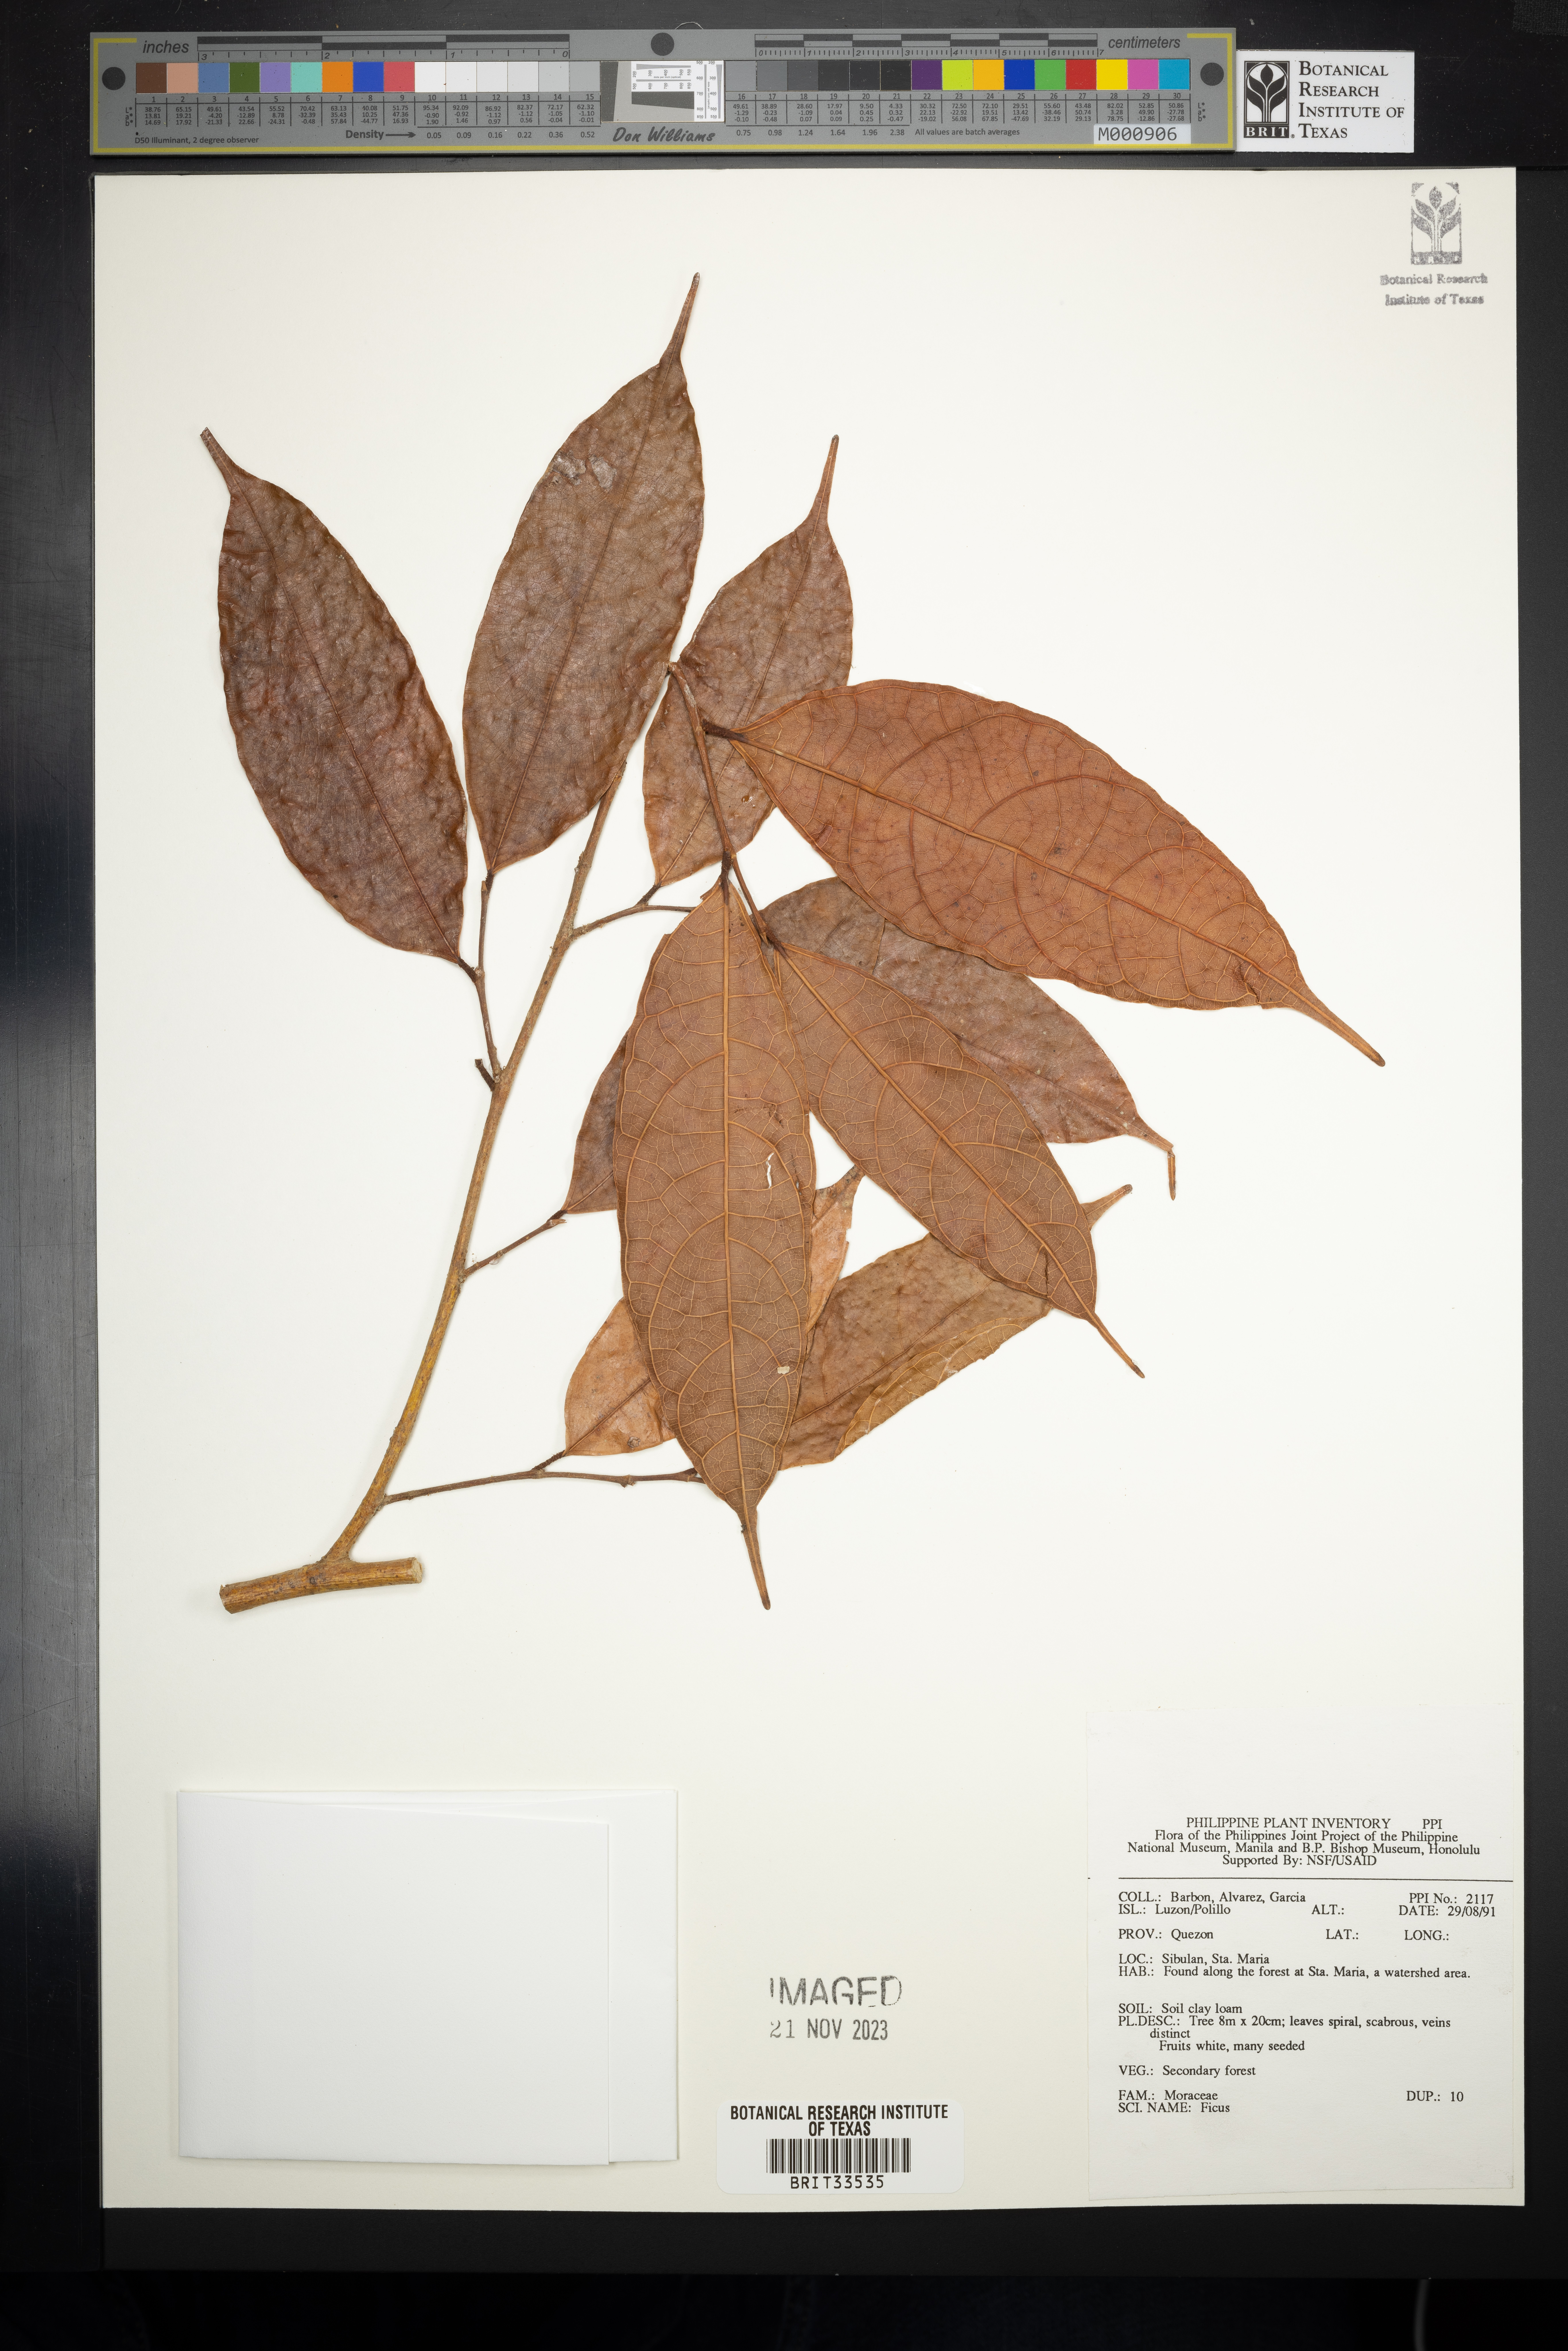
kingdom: Plantae
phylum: Tracheophyta
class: Magnoliopsida
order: Rosales
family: Moraceae
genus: Ficus
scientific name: Ficus
